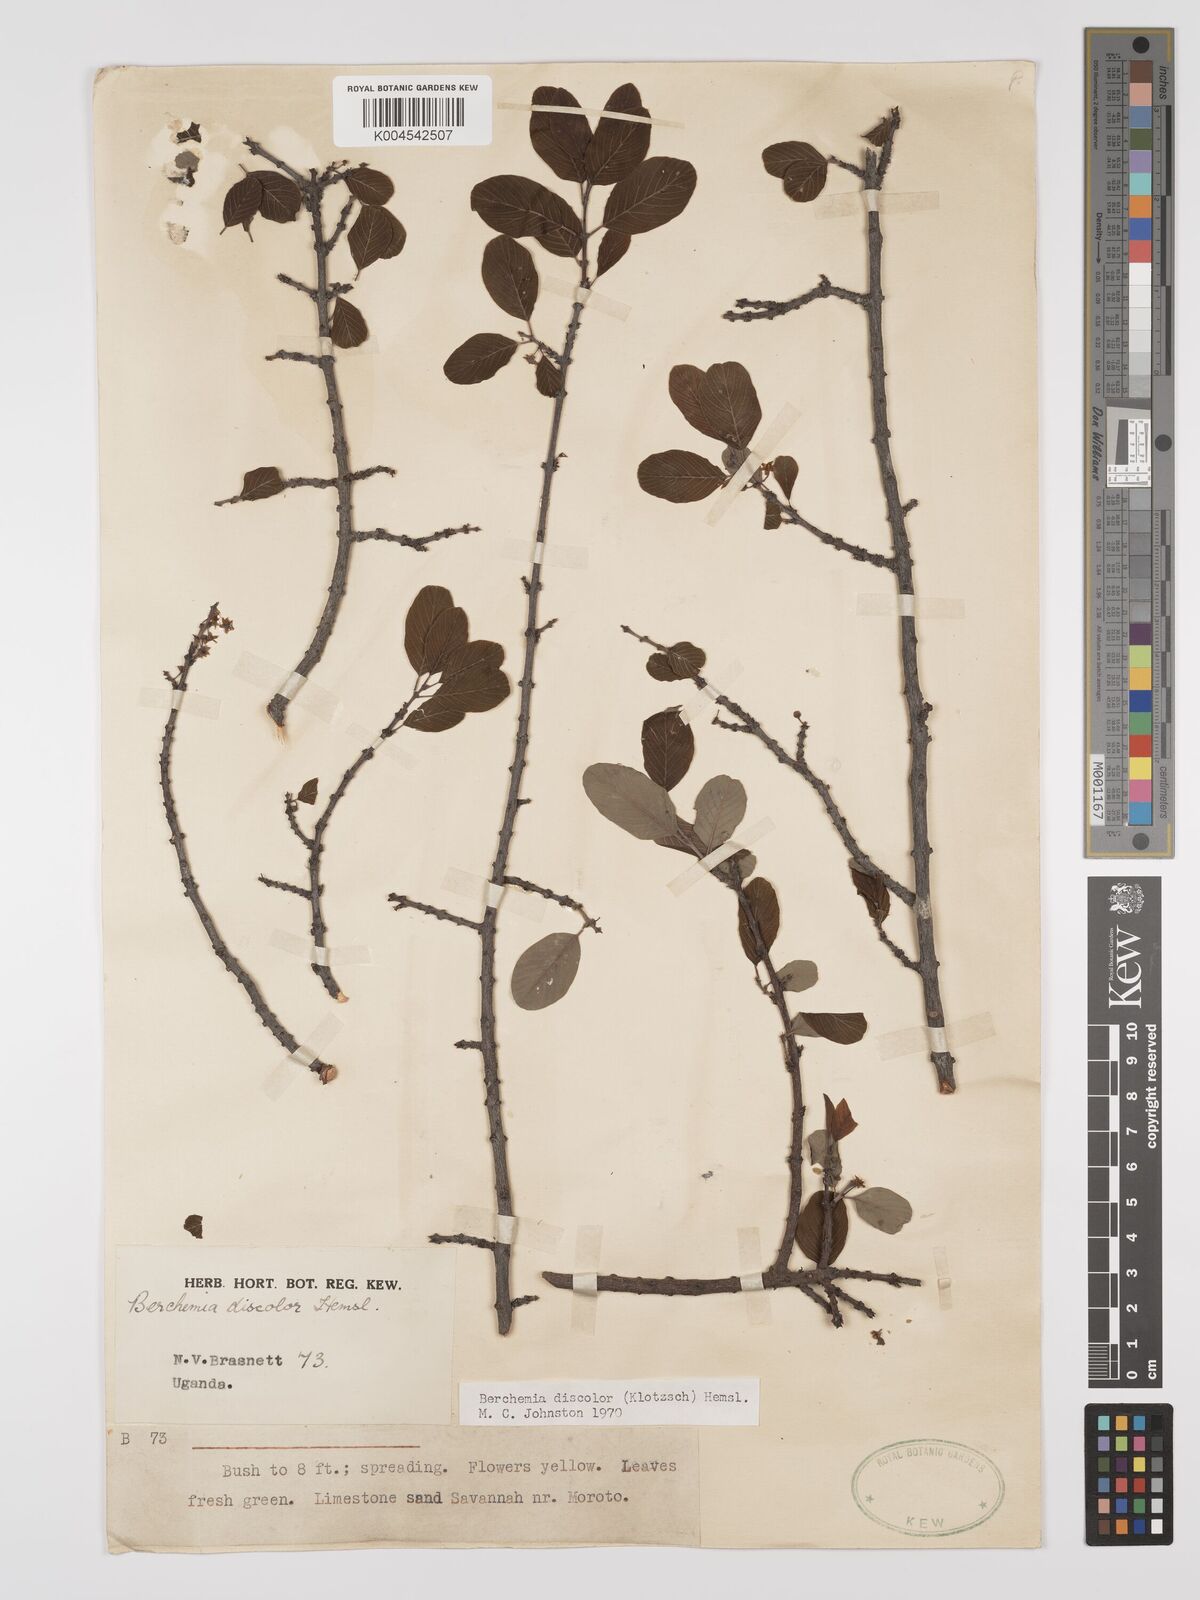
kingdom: Plantae
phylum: Tracheophyta
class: Magnoliopsida
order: Rosales
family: Rhamnaceae
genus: Phyllogeiton
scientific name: Phyllogeiton discolor
